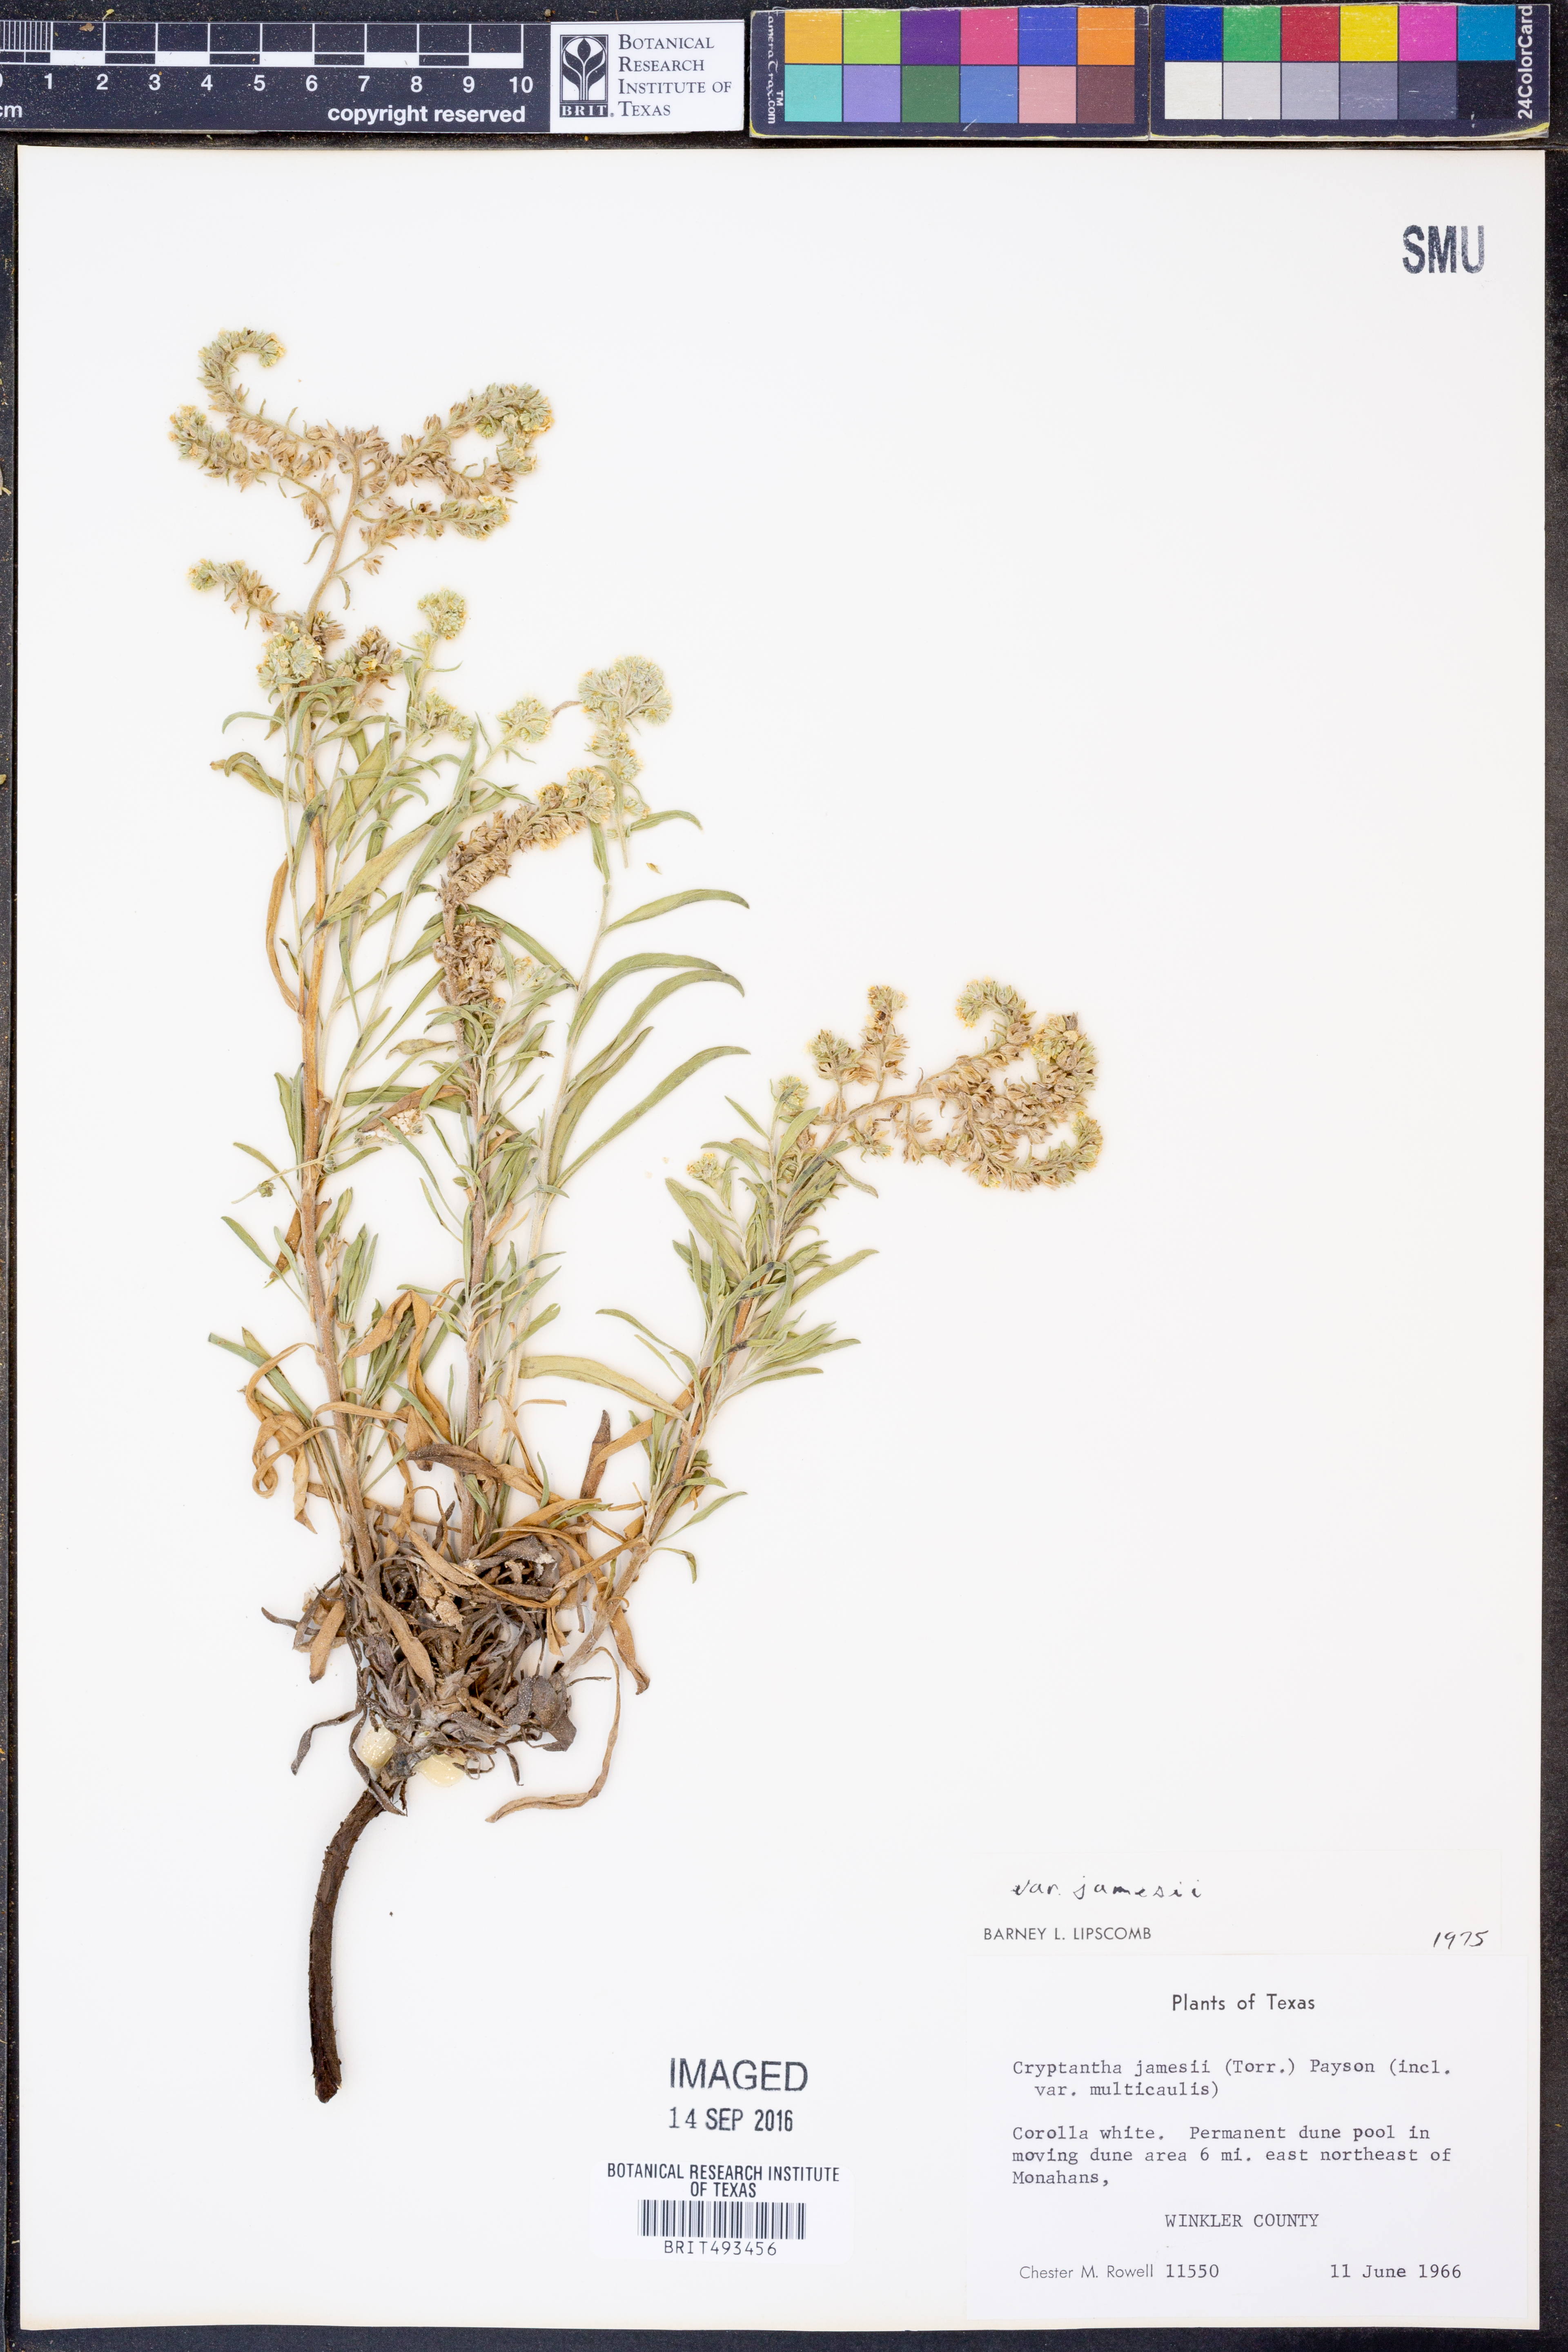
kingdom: Plantae
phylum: Tracheophyta
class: Magnoliopsida
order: Boraginales
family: Boraginaceae
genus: Oreocarya
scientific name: Oreocarya suffruticosa
